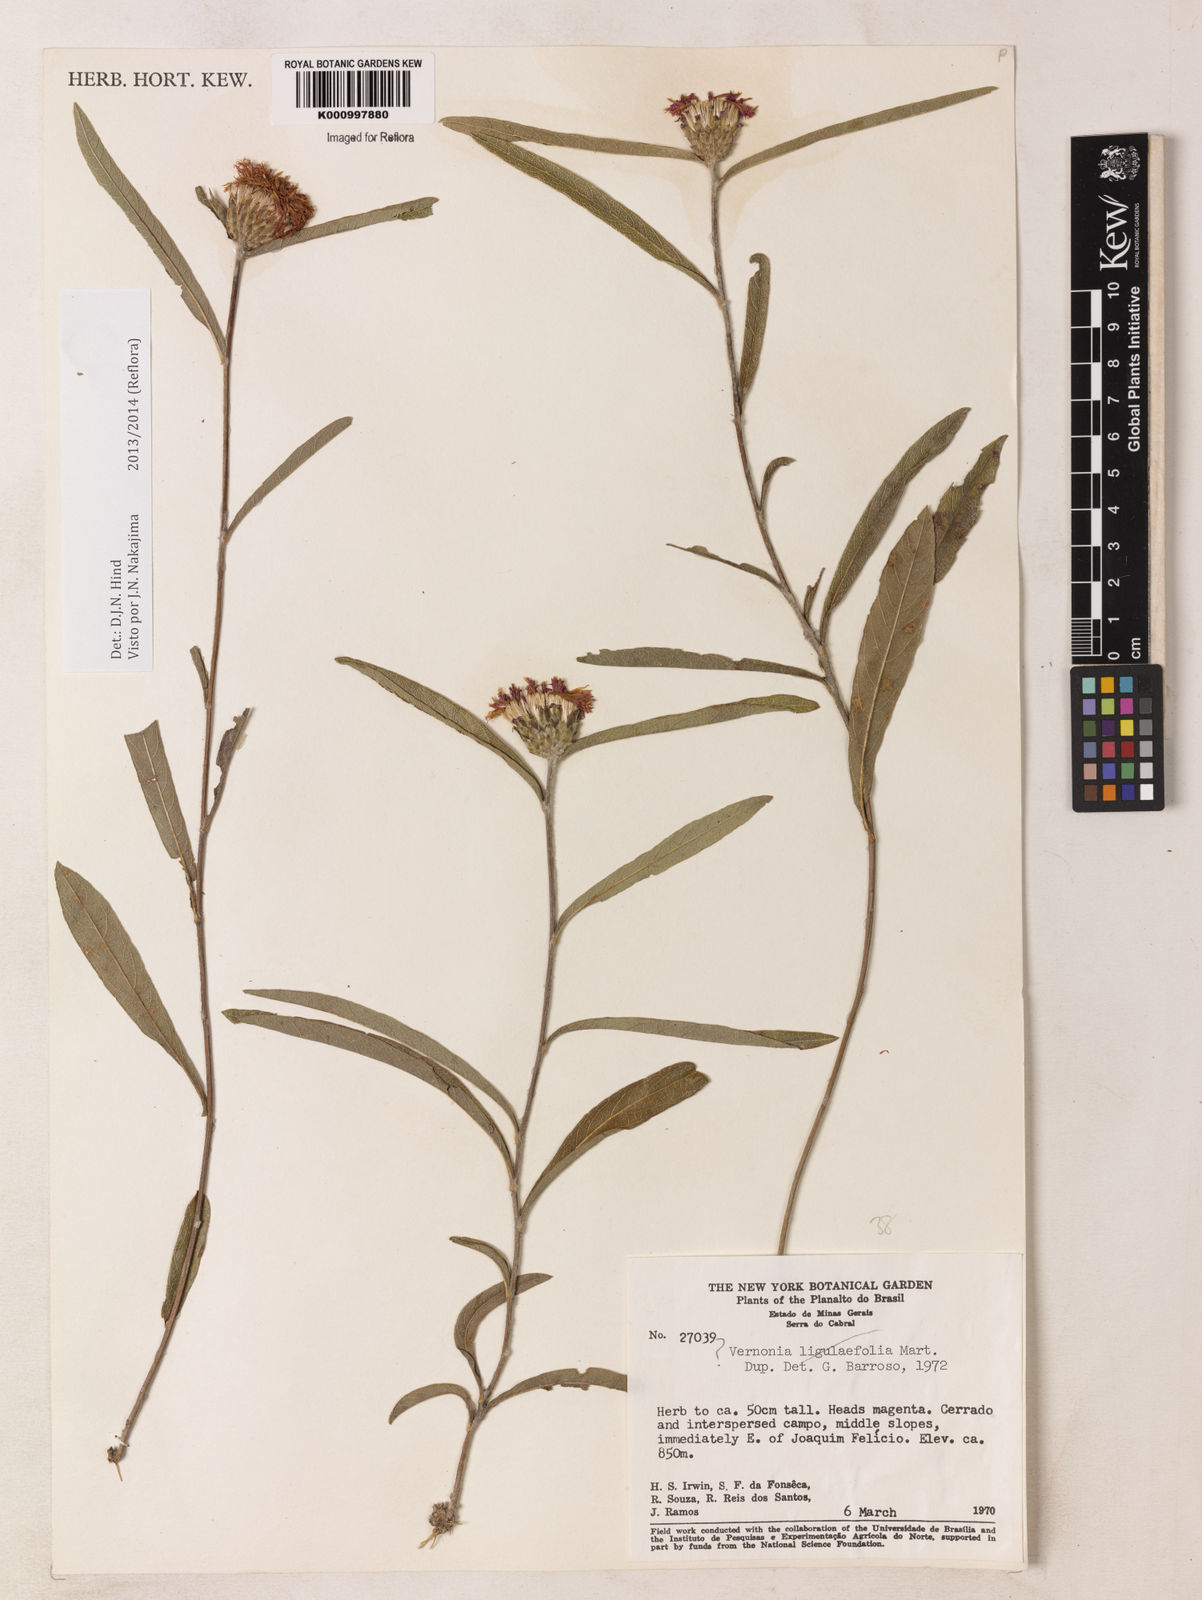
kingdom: Plantae
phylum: Tracheophyta
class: Magnoliopsida
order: Asterales
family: Asteraceae
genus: Lessingianthus
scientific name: Lessingianthus coriaceus
